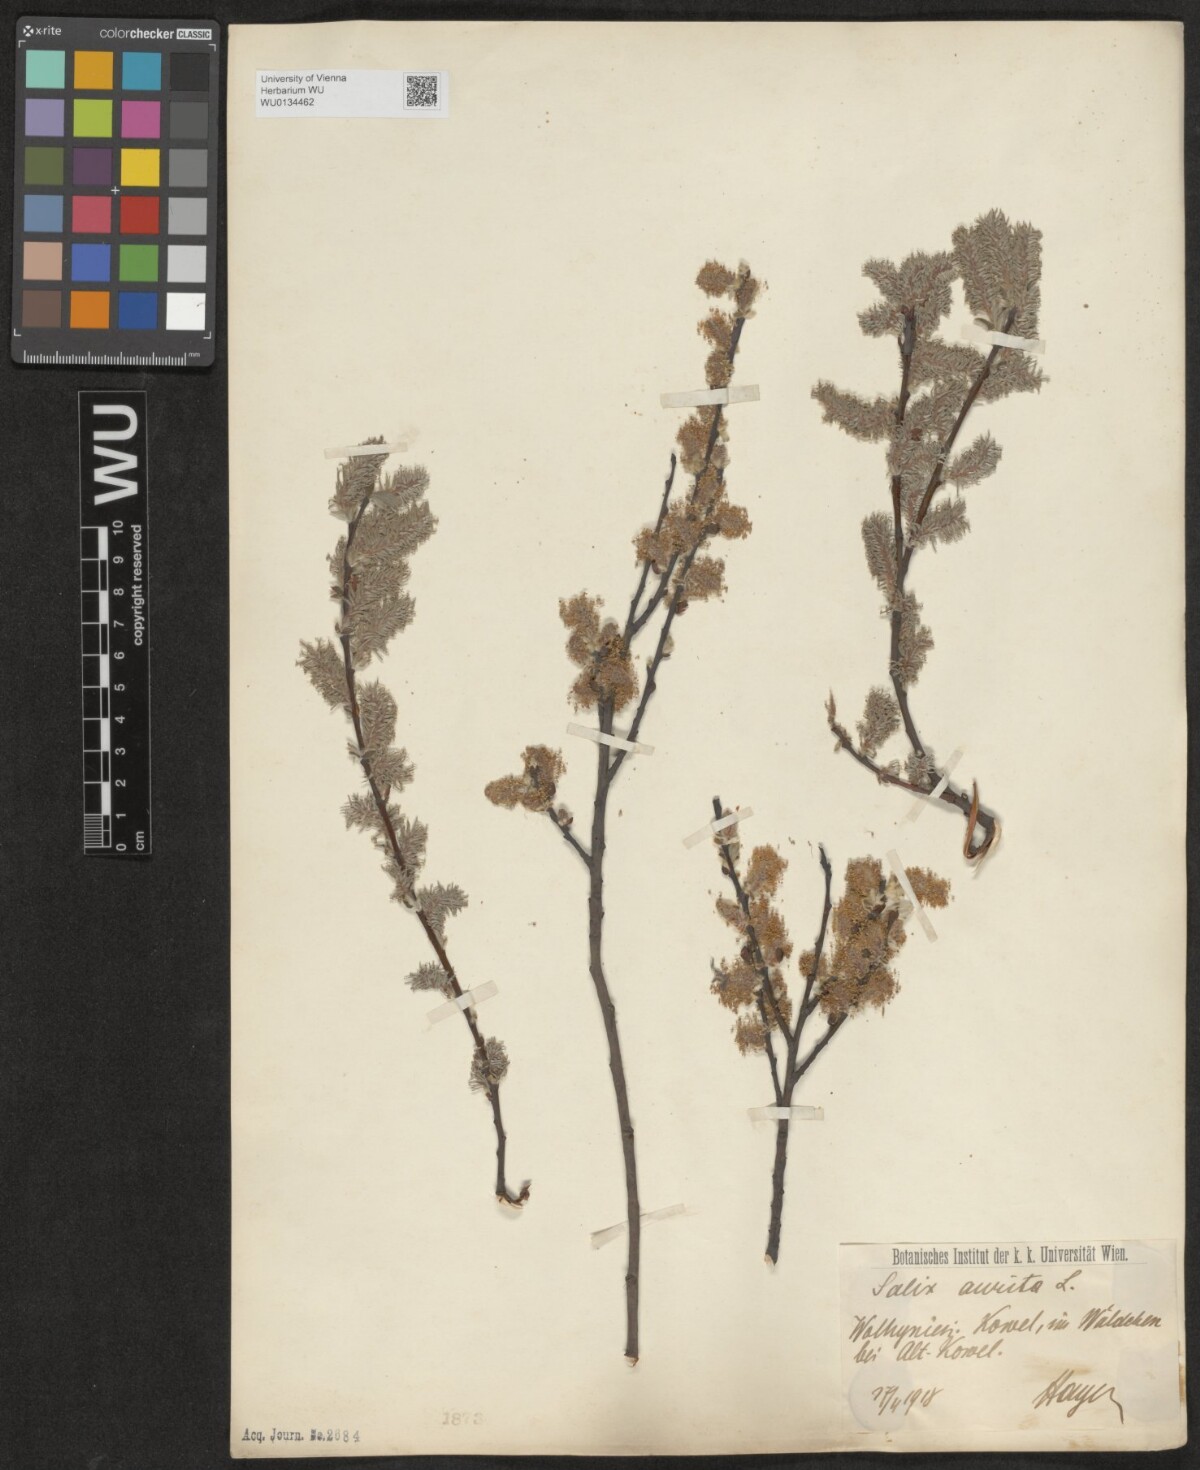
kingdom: Plantae
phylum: Tracheophyta
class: Magnoliopsida
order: Malpighiales
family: Salicaceae
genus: Salix
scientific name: Salix aurita
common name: Eared willow
